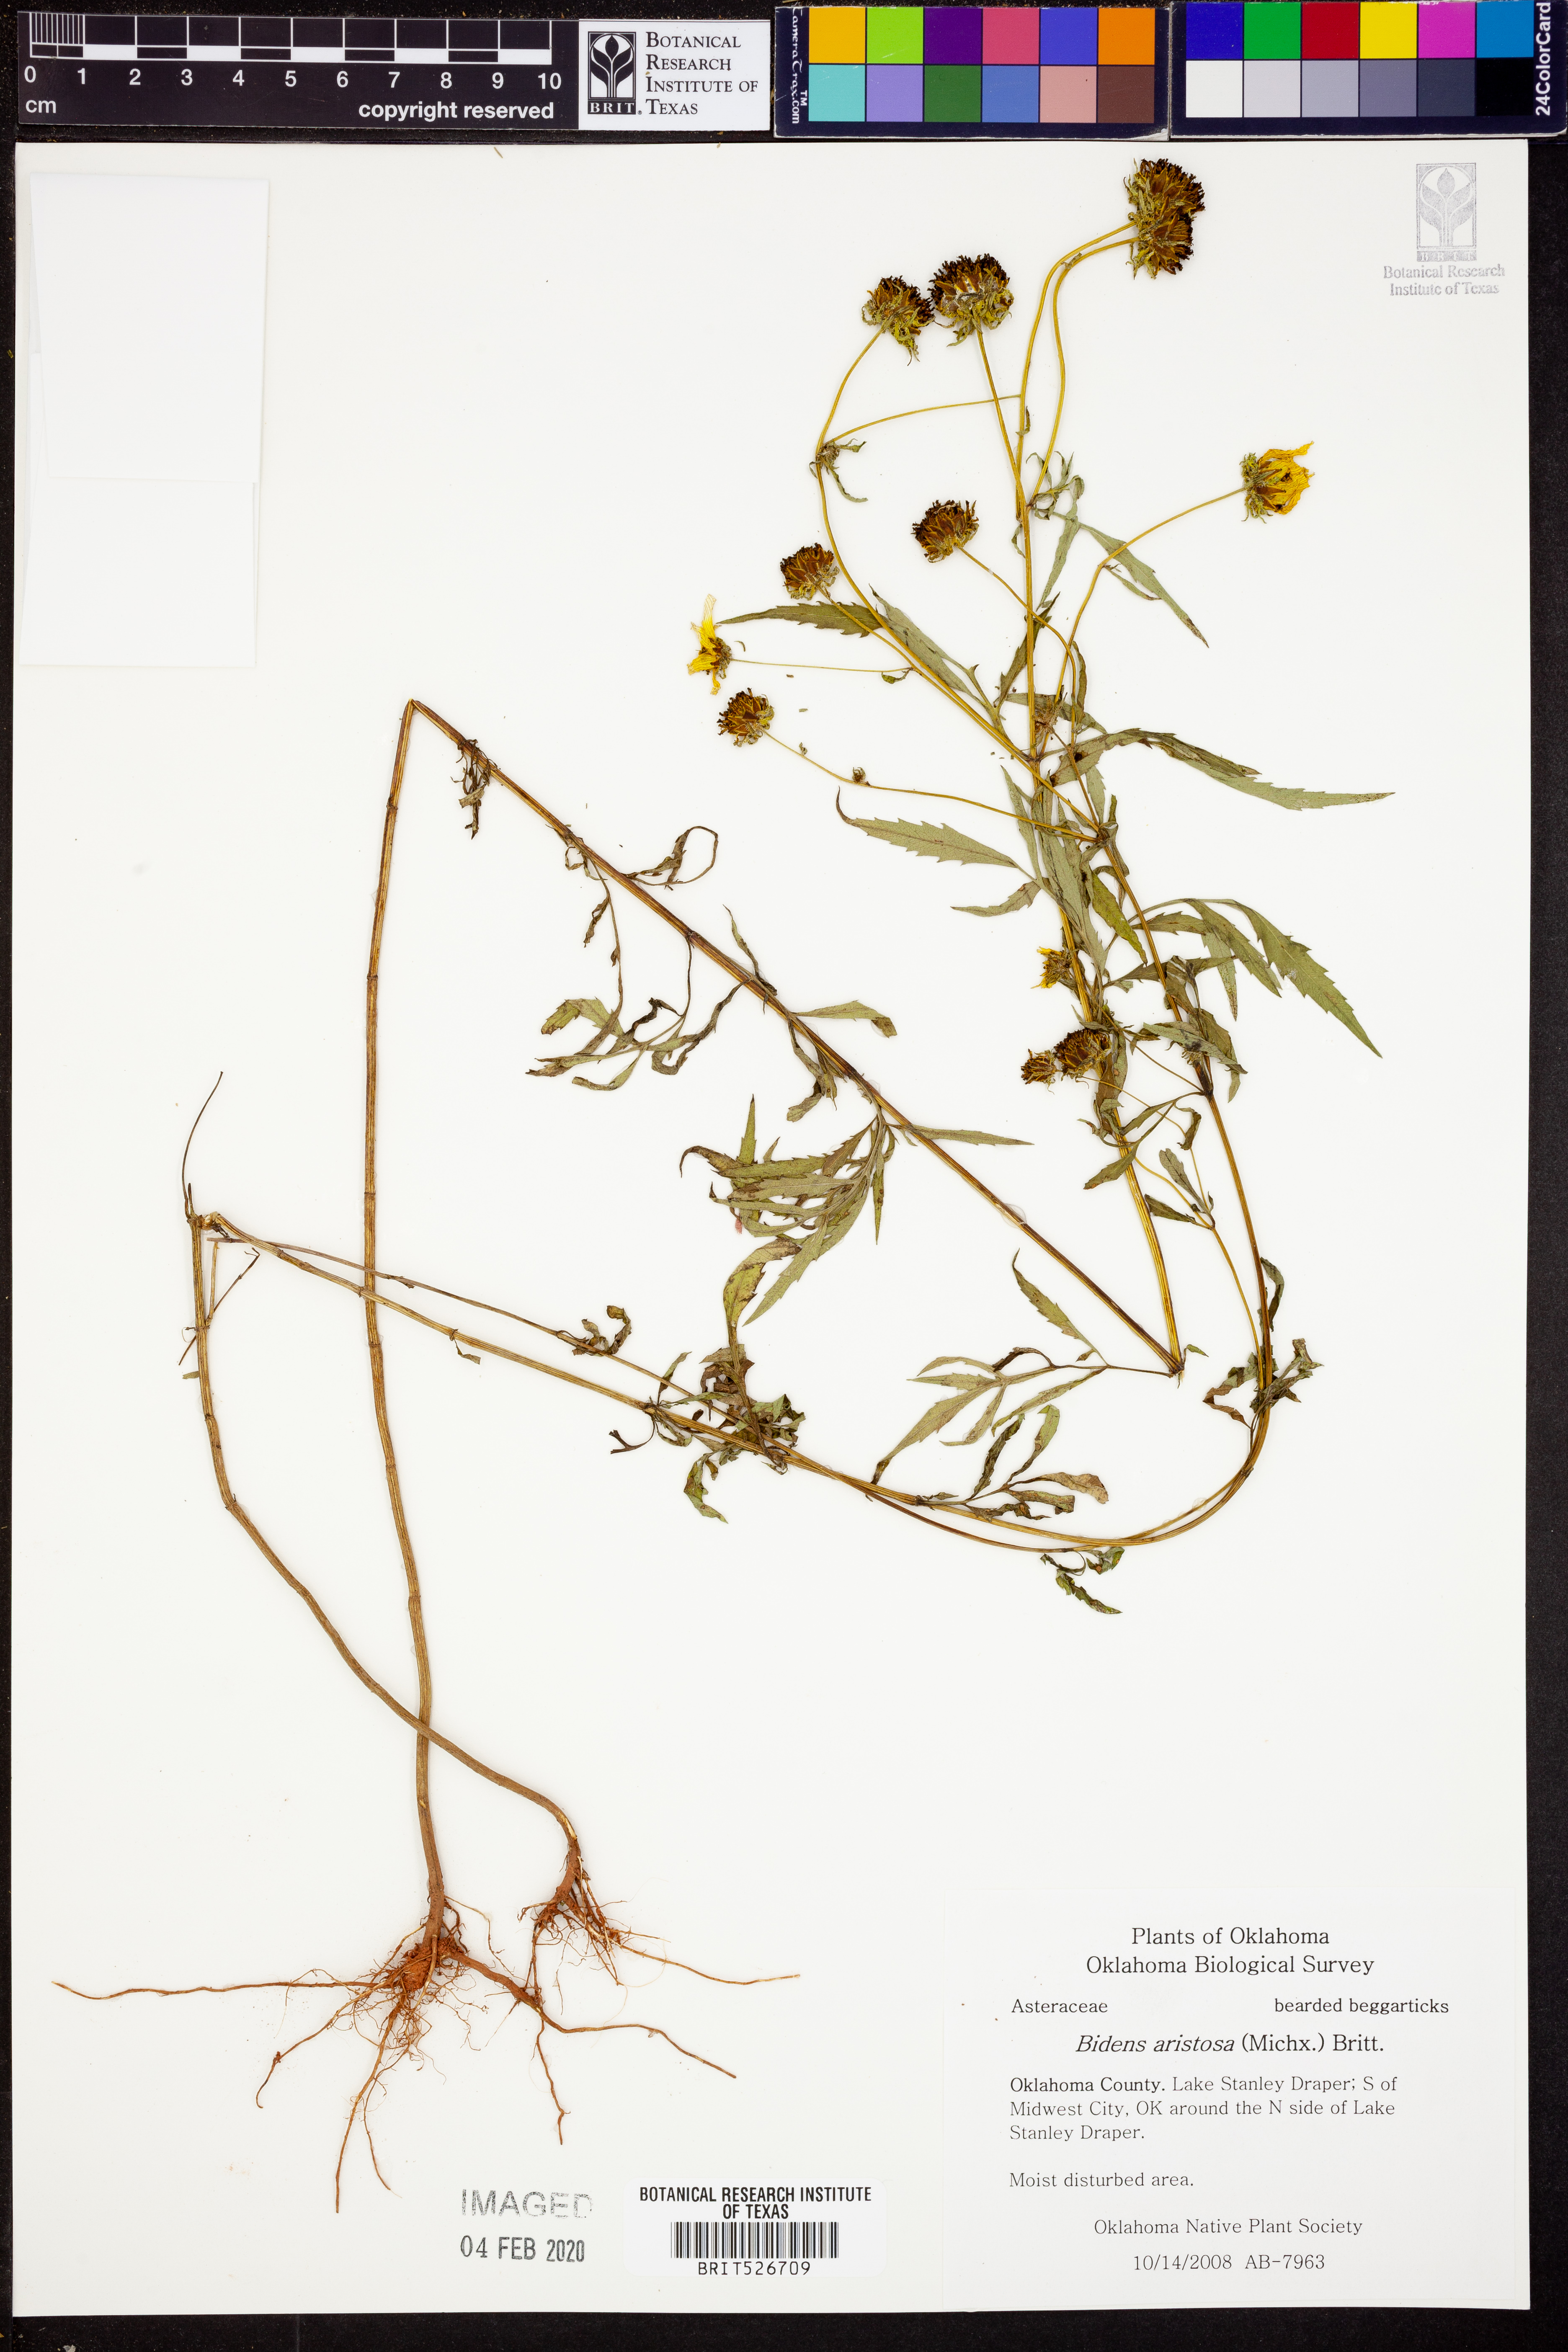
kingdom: Plantae
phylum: Tracheophyta
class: Magnoliopsida
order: Asterales
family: Asteraceae
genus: Bidens
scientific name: Bidens aristosa
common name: Western tickseed
